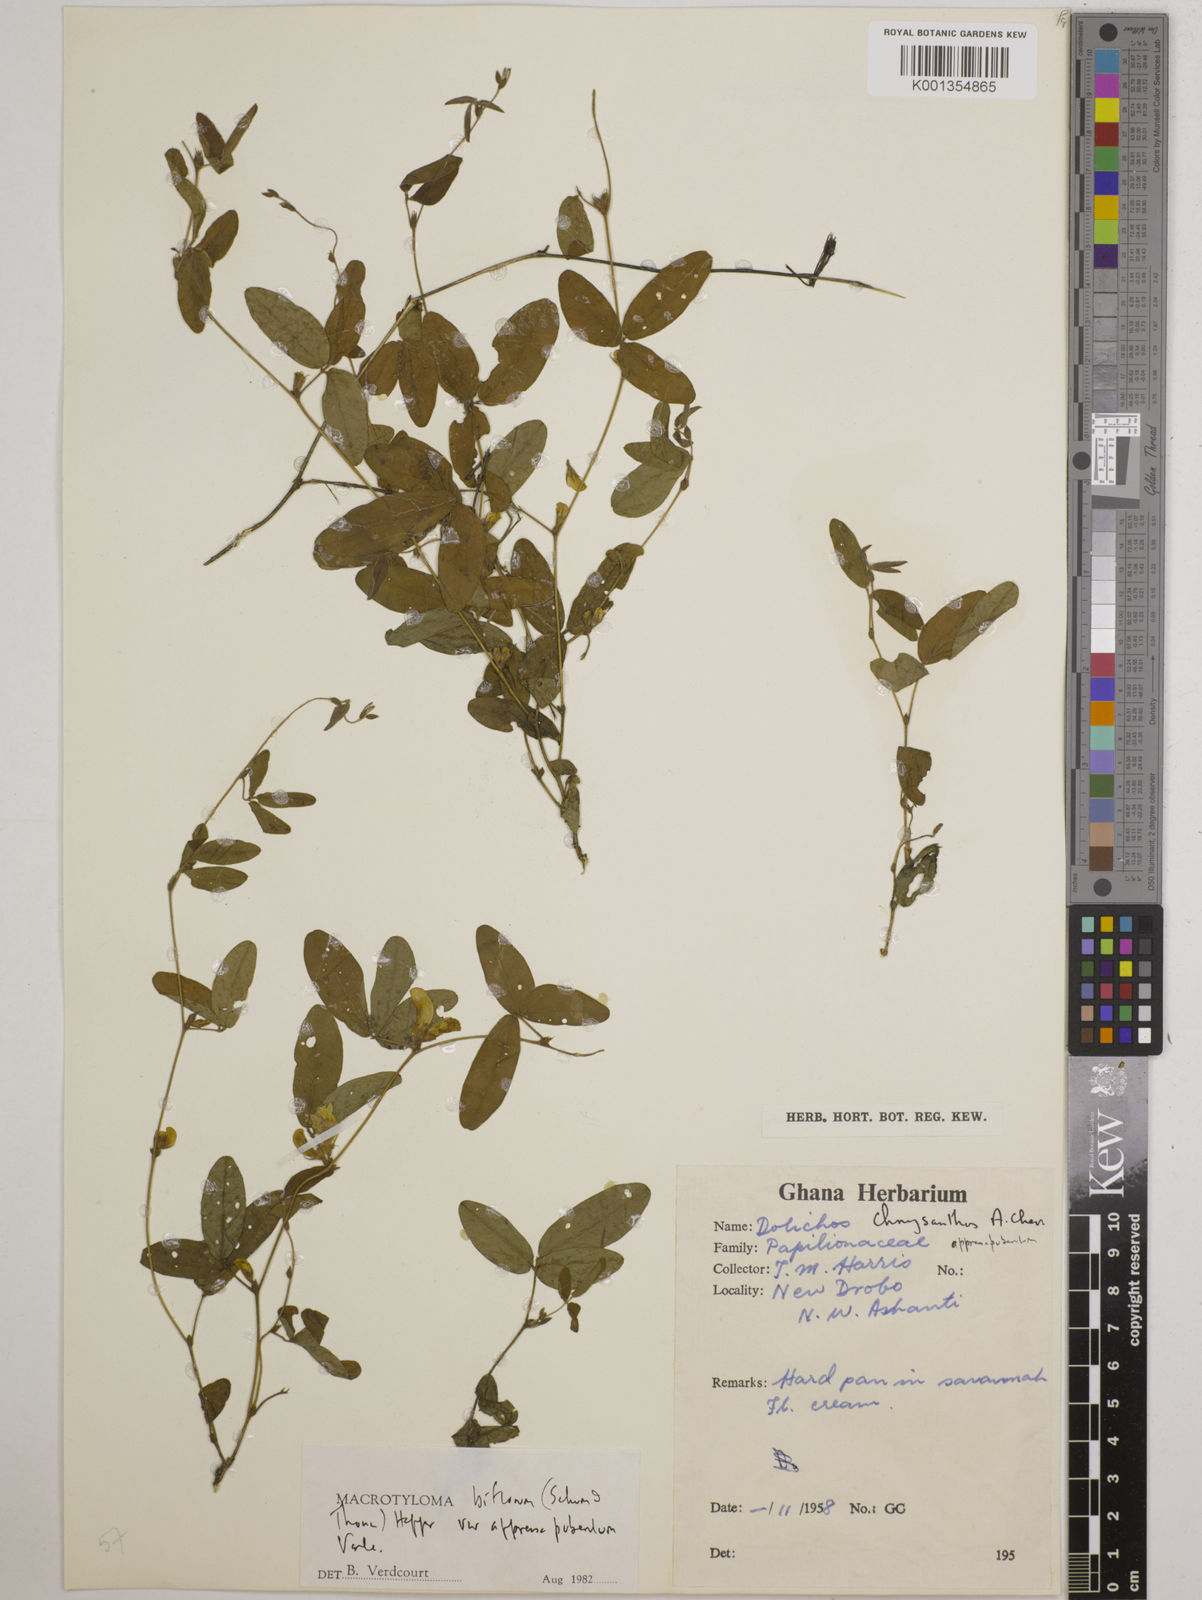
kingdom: Plantae
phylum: Tracheophyta
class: Magnoliopsida
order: Fabales
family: Fabaceae
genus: Macrotyloma
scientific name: Macrotyloma biflorum
